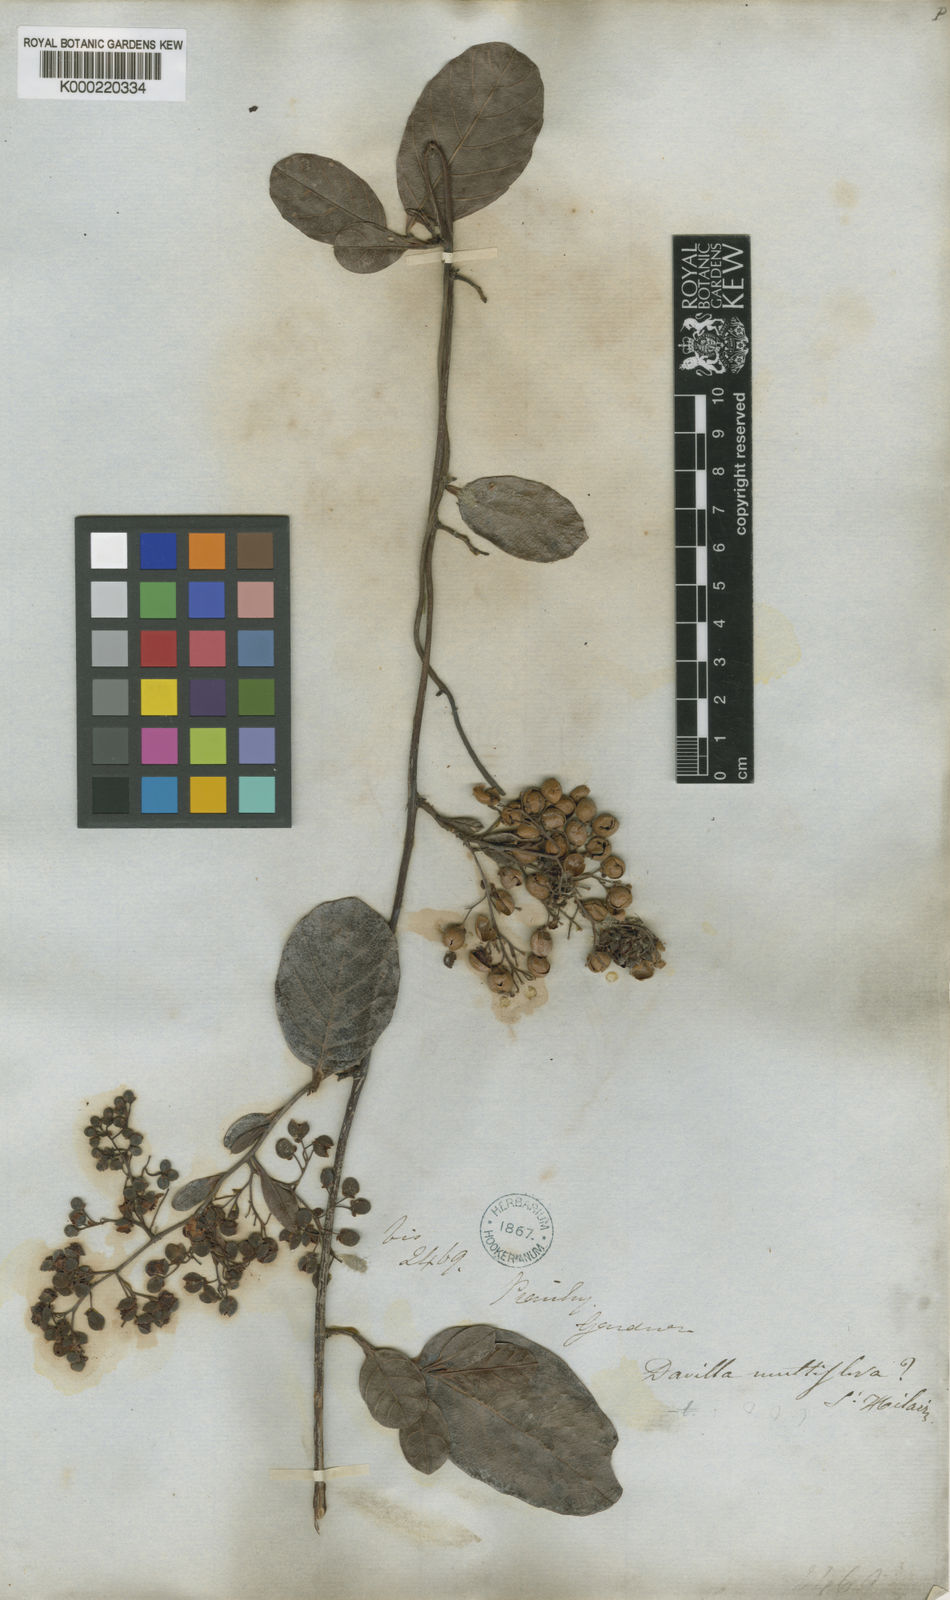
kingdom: Plantae
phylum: Tracheophyta
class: Magnoliopsida
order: Dilleniales
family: Dilleniaceae
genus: Davilla
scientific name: Davilla nitida
